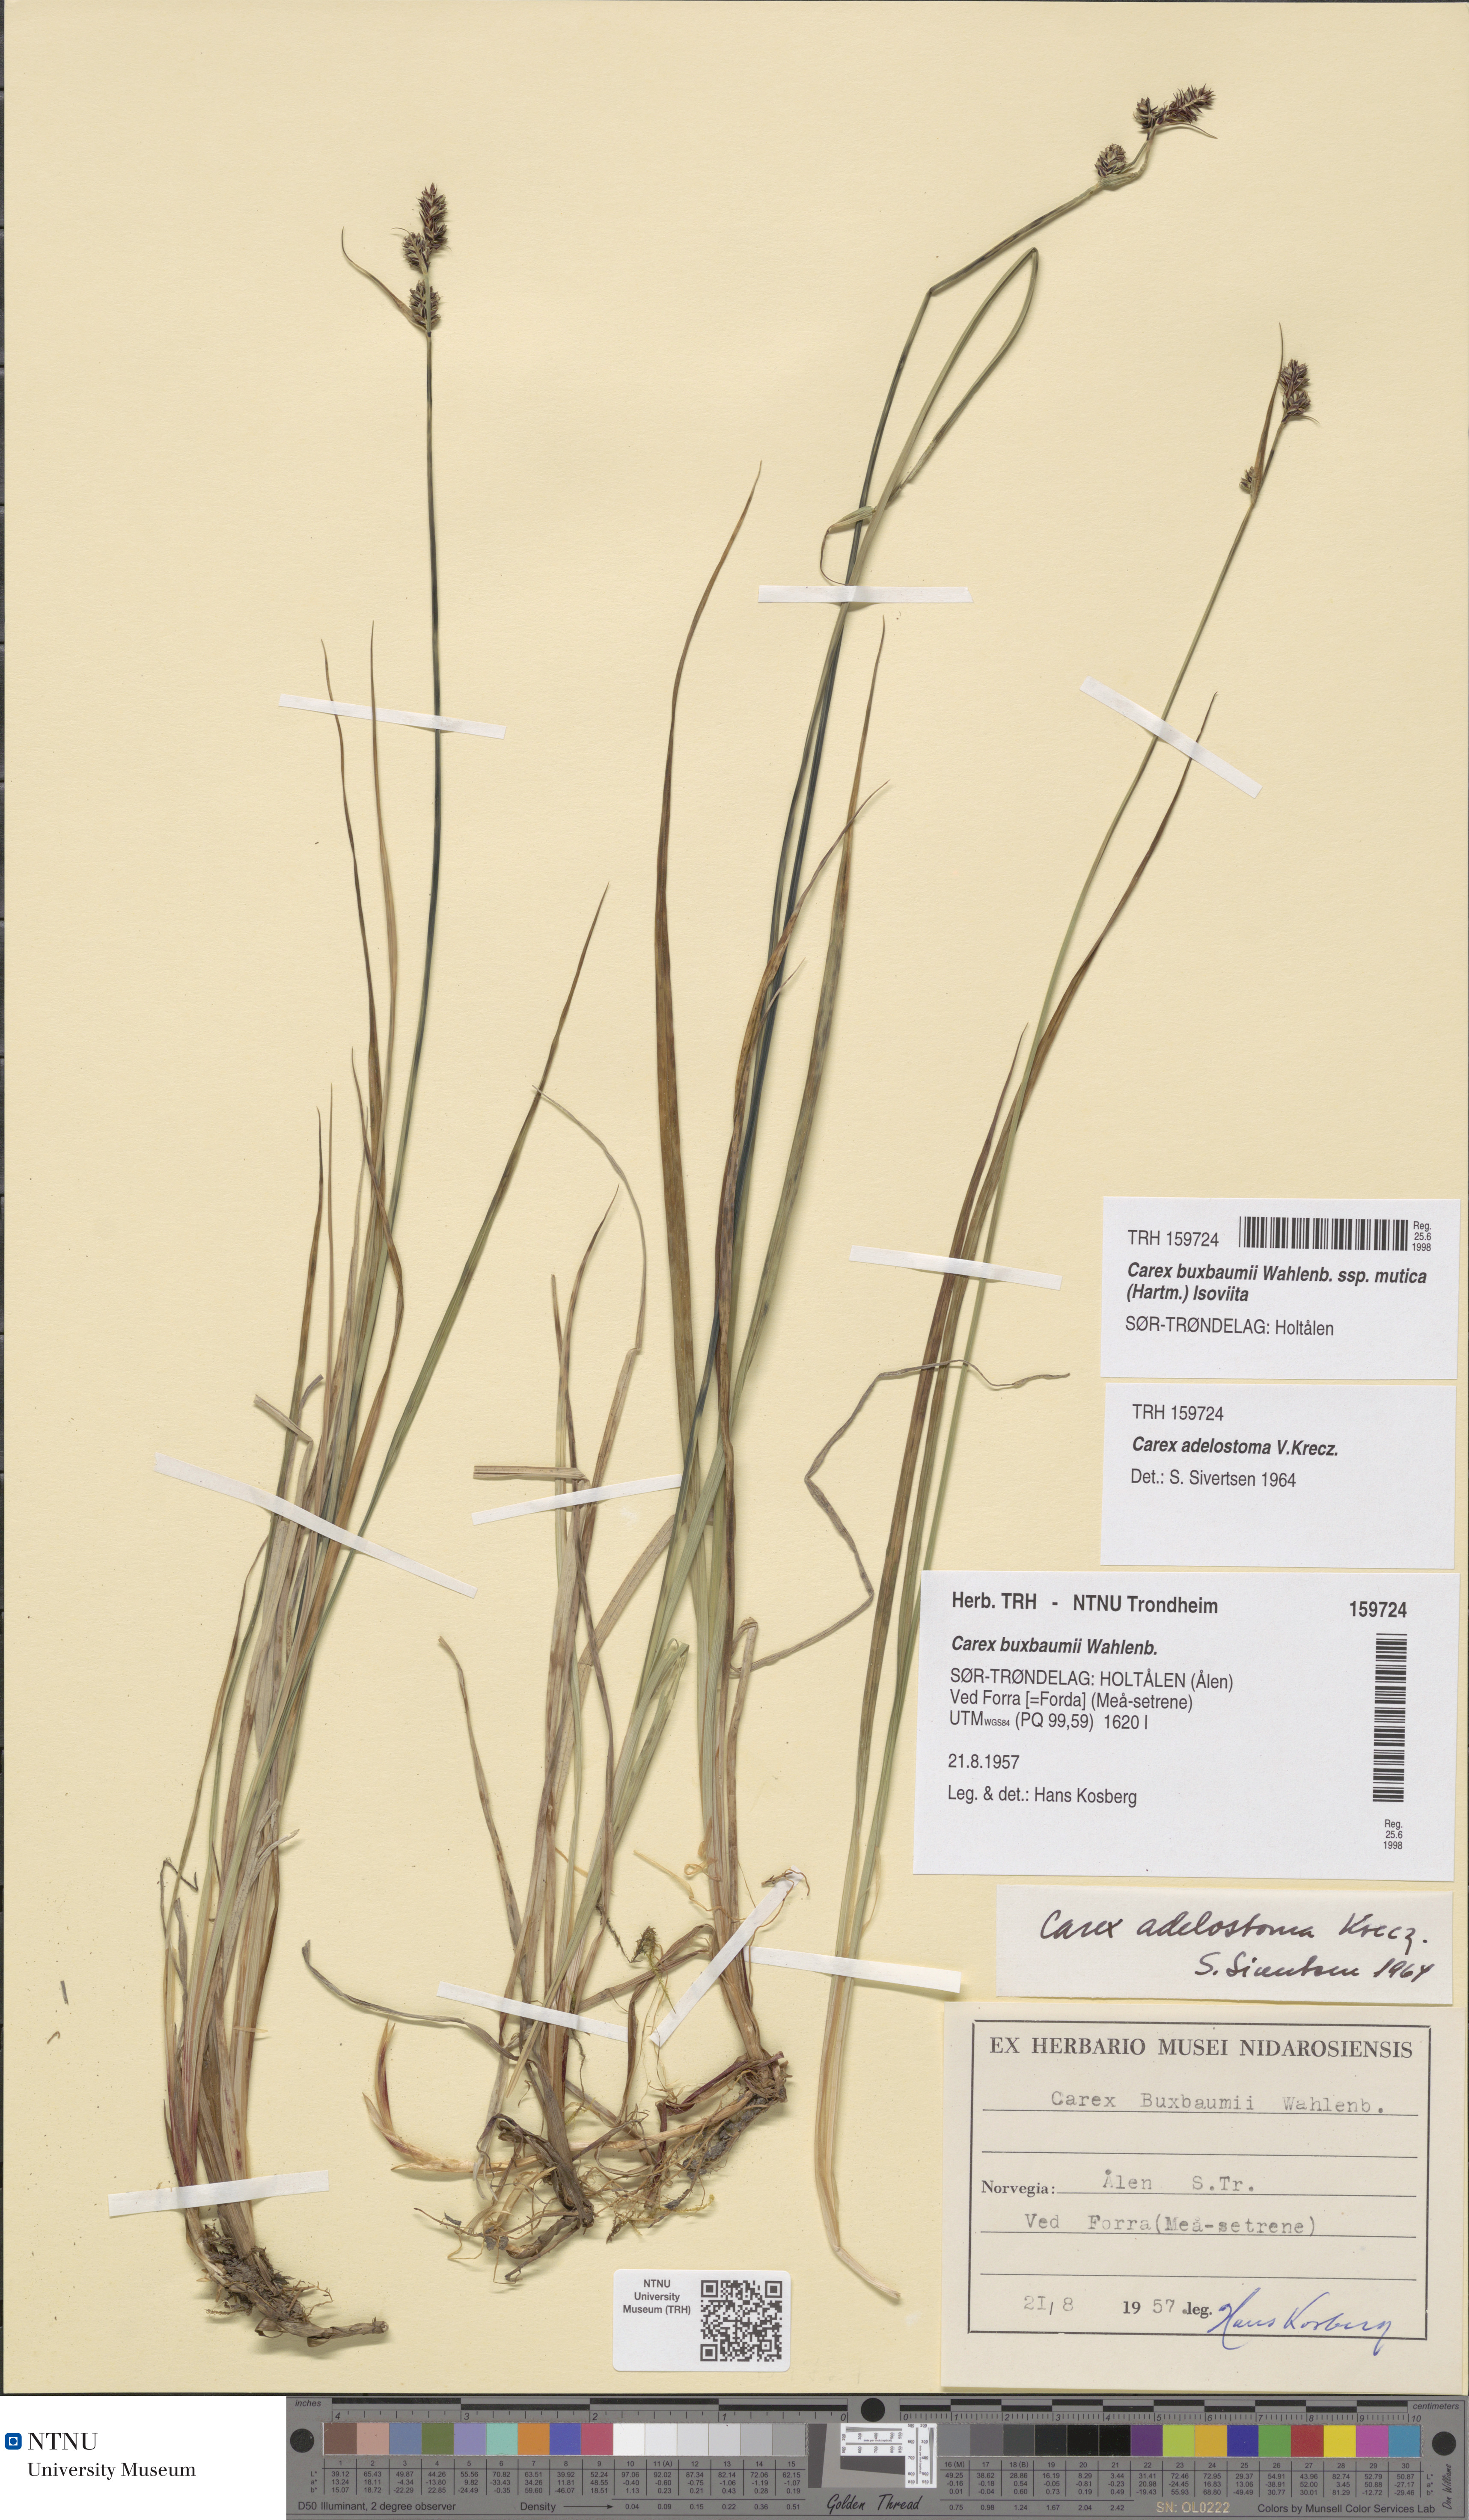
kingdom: Plantae
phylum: Tracheophyta
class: Liliopsida
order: Poales
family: Cyperaceae
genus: Carex
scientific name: Carex adelostoma
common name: Circumpolar sedge
